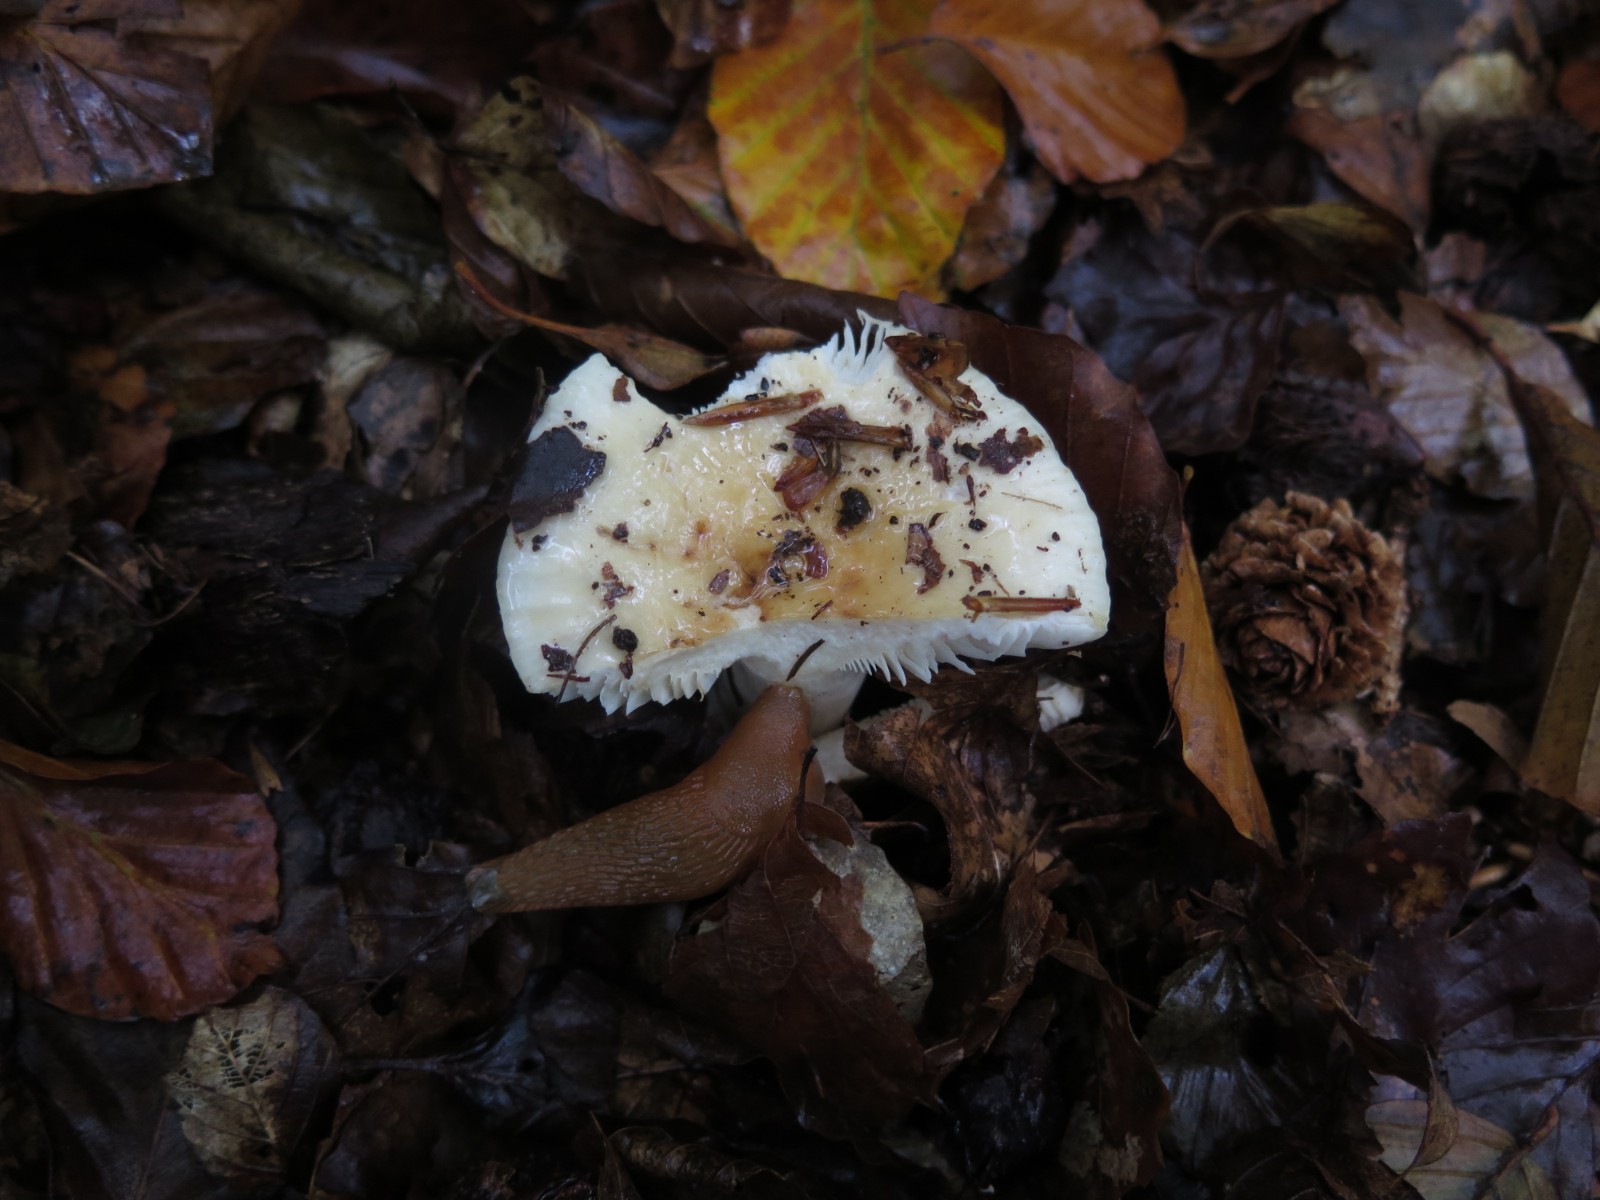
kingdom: Fungi
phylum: Basidiomycota
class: Agaricomycetes
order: Russulales
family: Russulaceae
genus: Russula
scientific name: Russula fellea
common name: galde-skørhat
